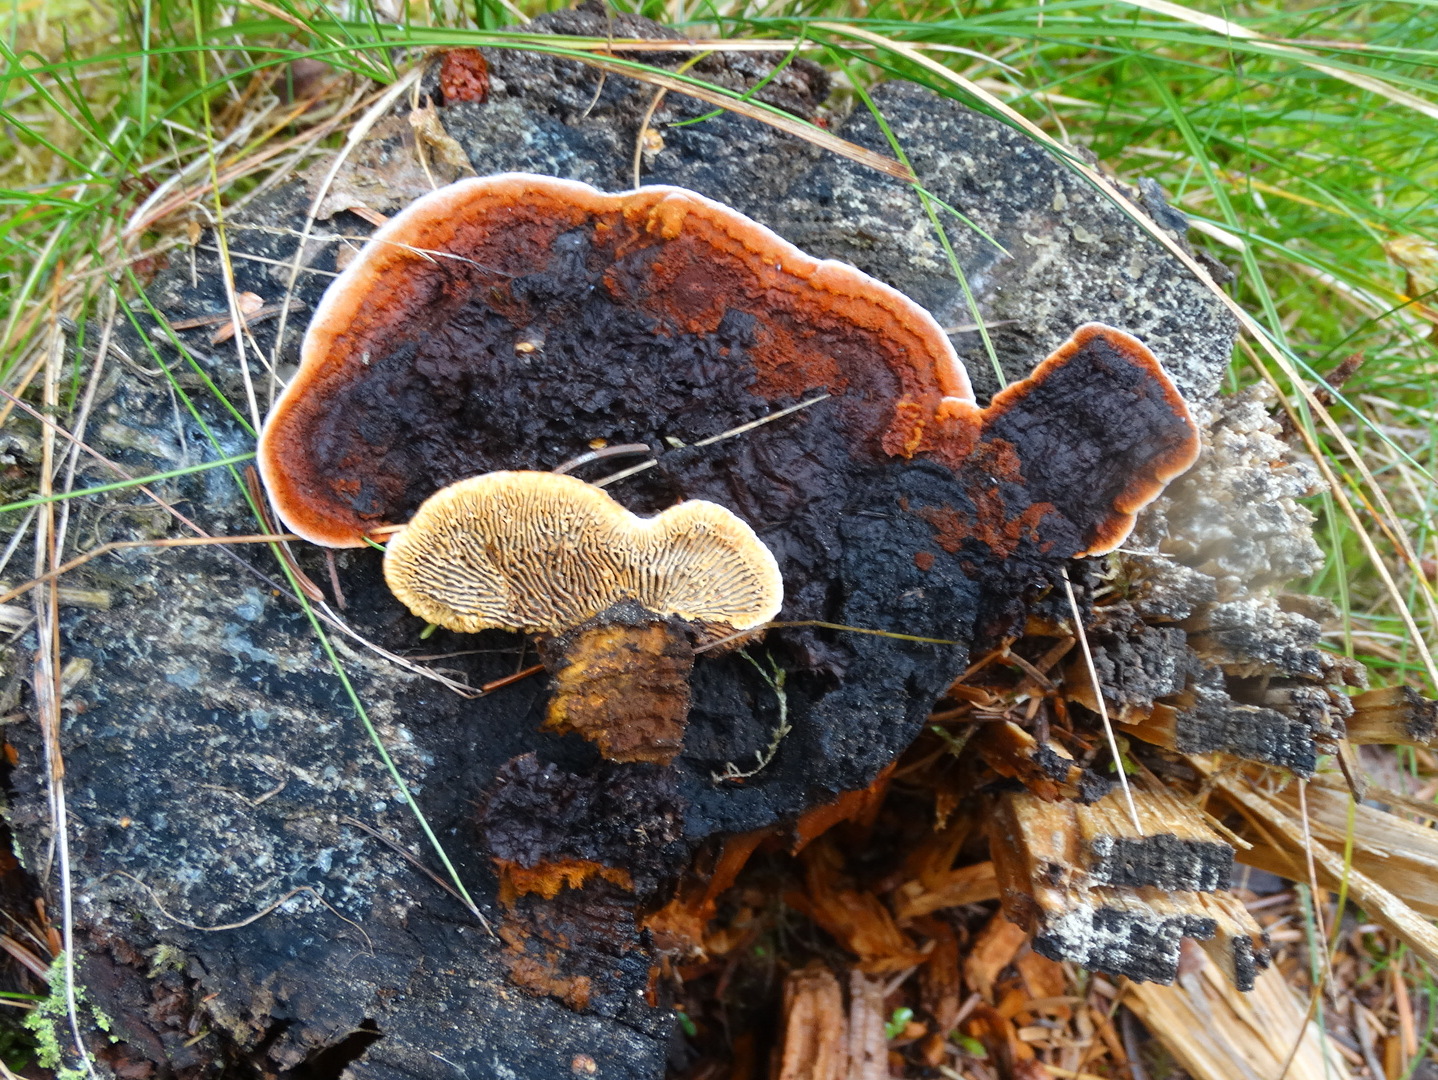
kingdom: Fungi
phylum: Basidiomycota
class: Agaricomycetes
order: Gloeophyllales
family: Gloeophyllaceae
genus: Gloeophyllum
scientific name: Gloeophyllum sepiarium
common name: fyrre-korkhat
